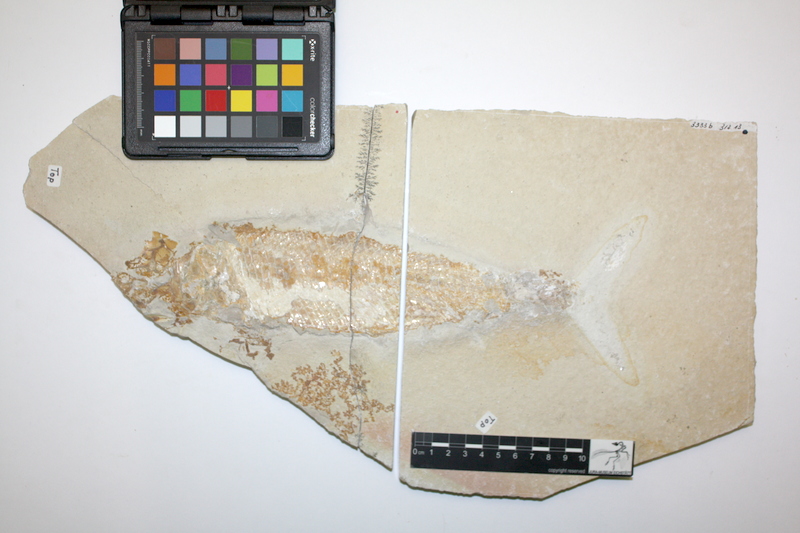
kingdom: Animalia
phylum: Chordata
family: Ankylophoridae
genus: Siemensichthys
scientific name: Siemensichthys macrocephalus
